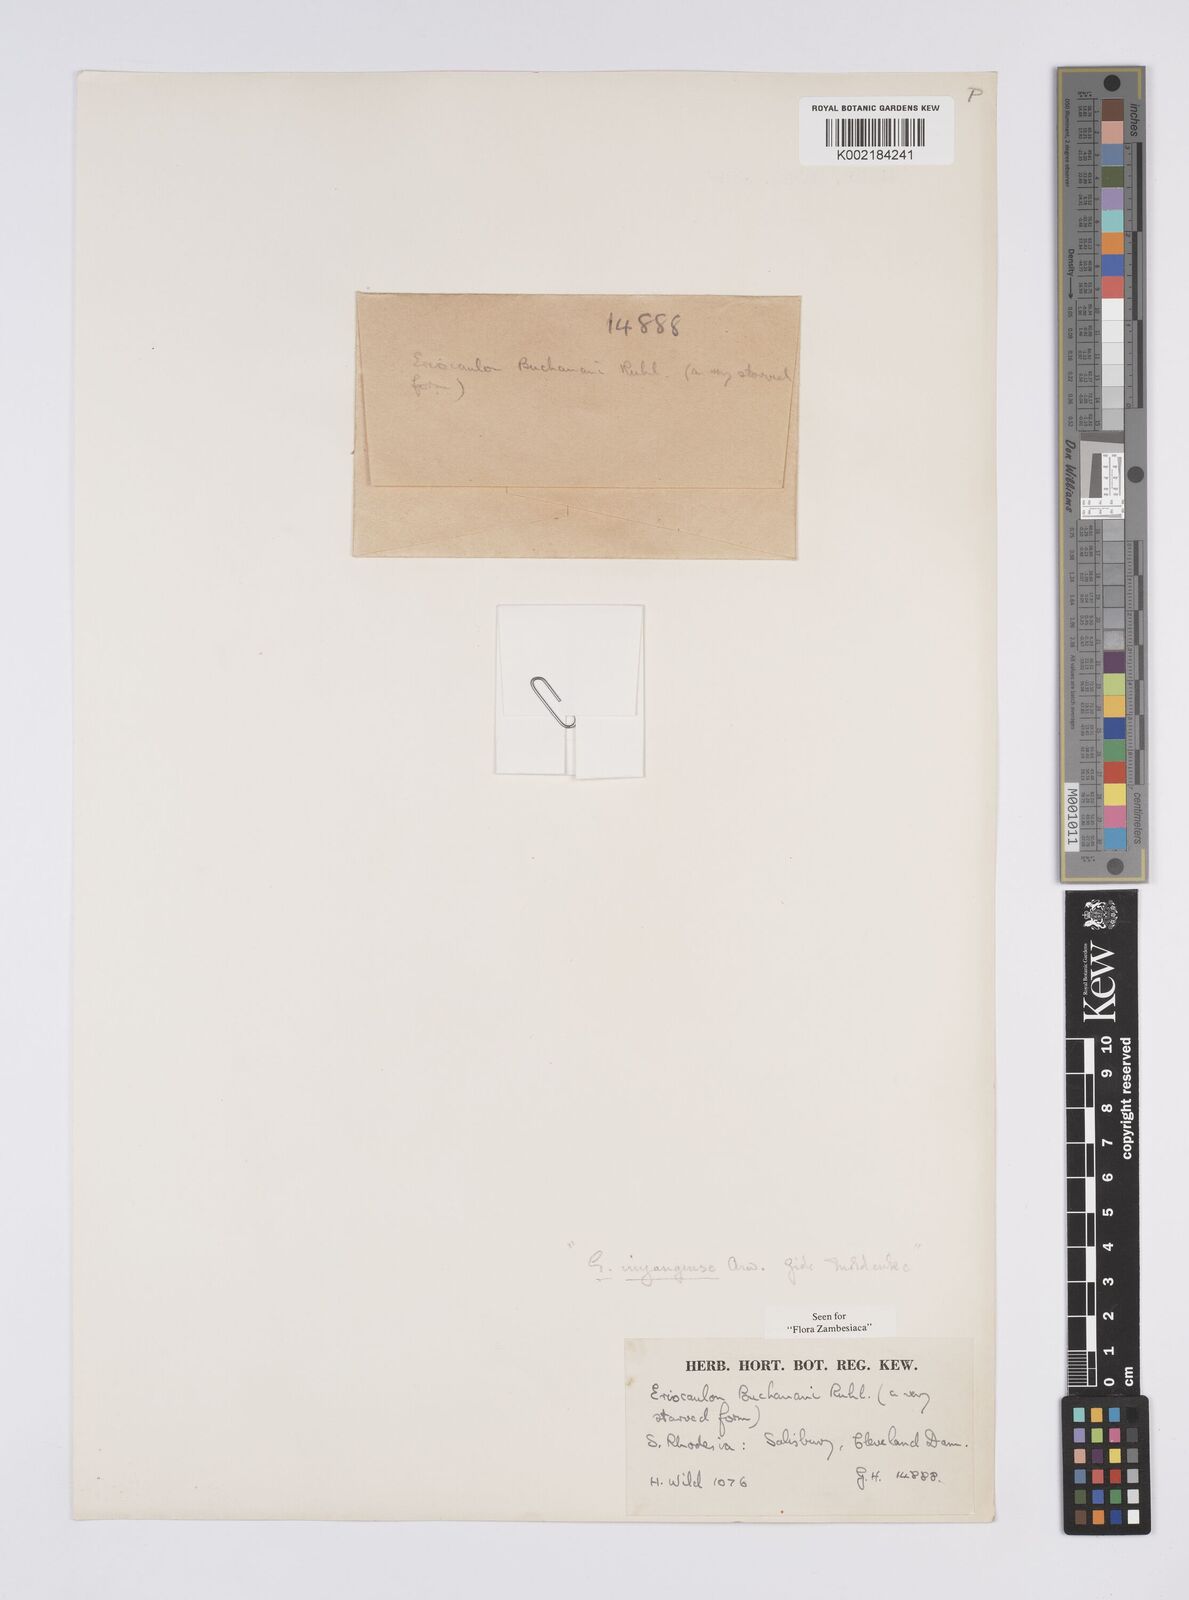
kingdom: Plantae
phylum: Tracheophyta
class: Liliopsida
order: Poales
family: Eriocaulaceae
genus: Eriocaulon
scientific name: Eriocaulon buchananii
